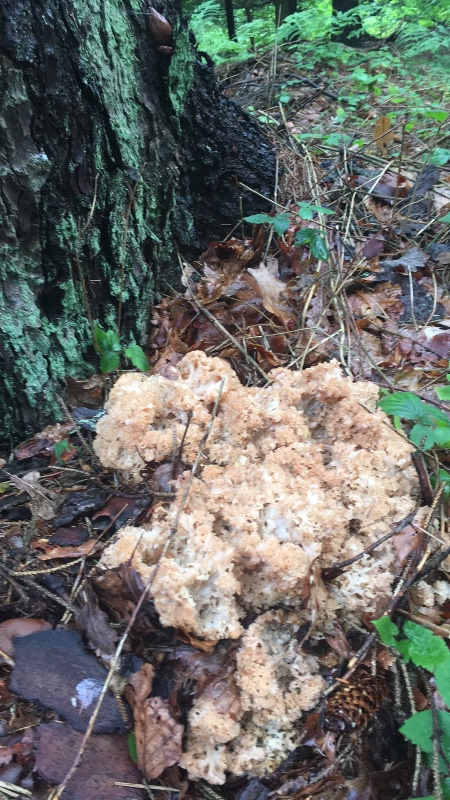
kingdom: Fungi
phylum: Basidiomycota
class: Agaricomycetes
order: Polyporales
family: Sparassidaceae
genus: Sparassis
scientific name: Sparassis crispa
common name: kruset blomkålssvamp
